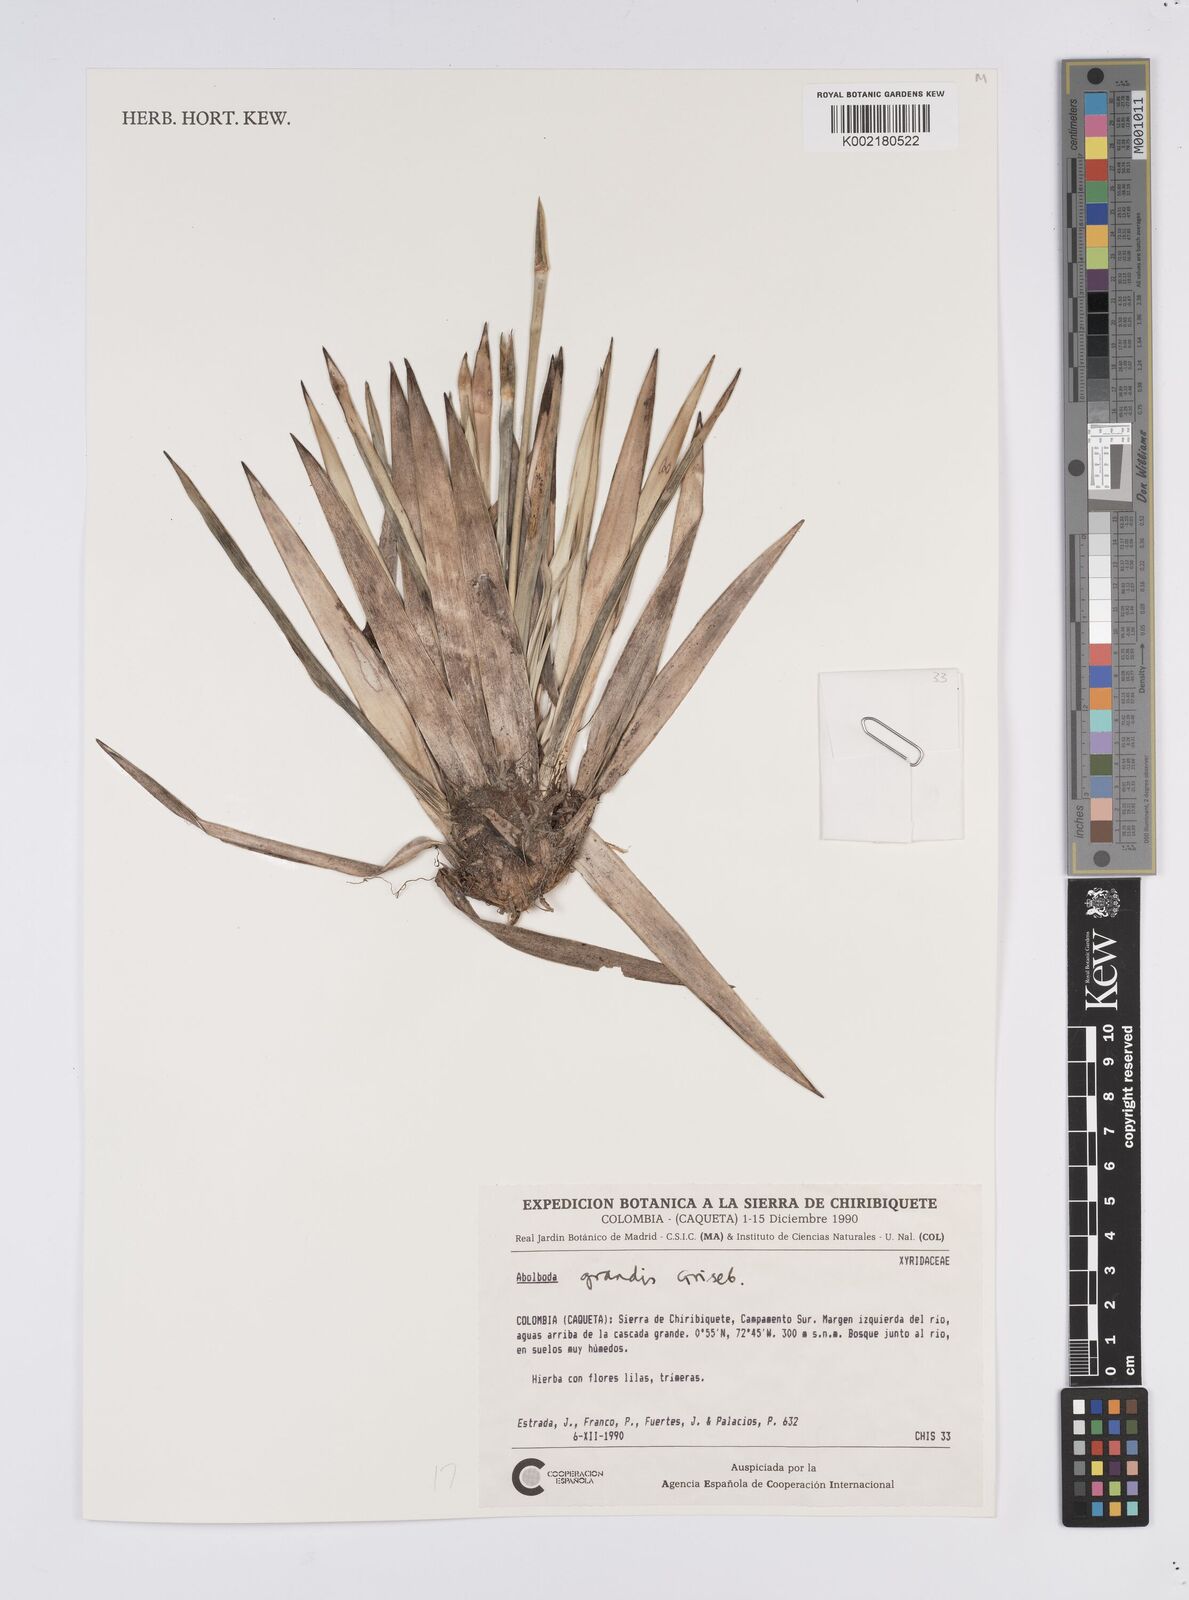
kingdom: Plantae
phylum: Tracheophyta
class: Liliopsida
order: Poales
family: Xyridaceae
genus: Abolboda
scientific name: Abolboda grandis
